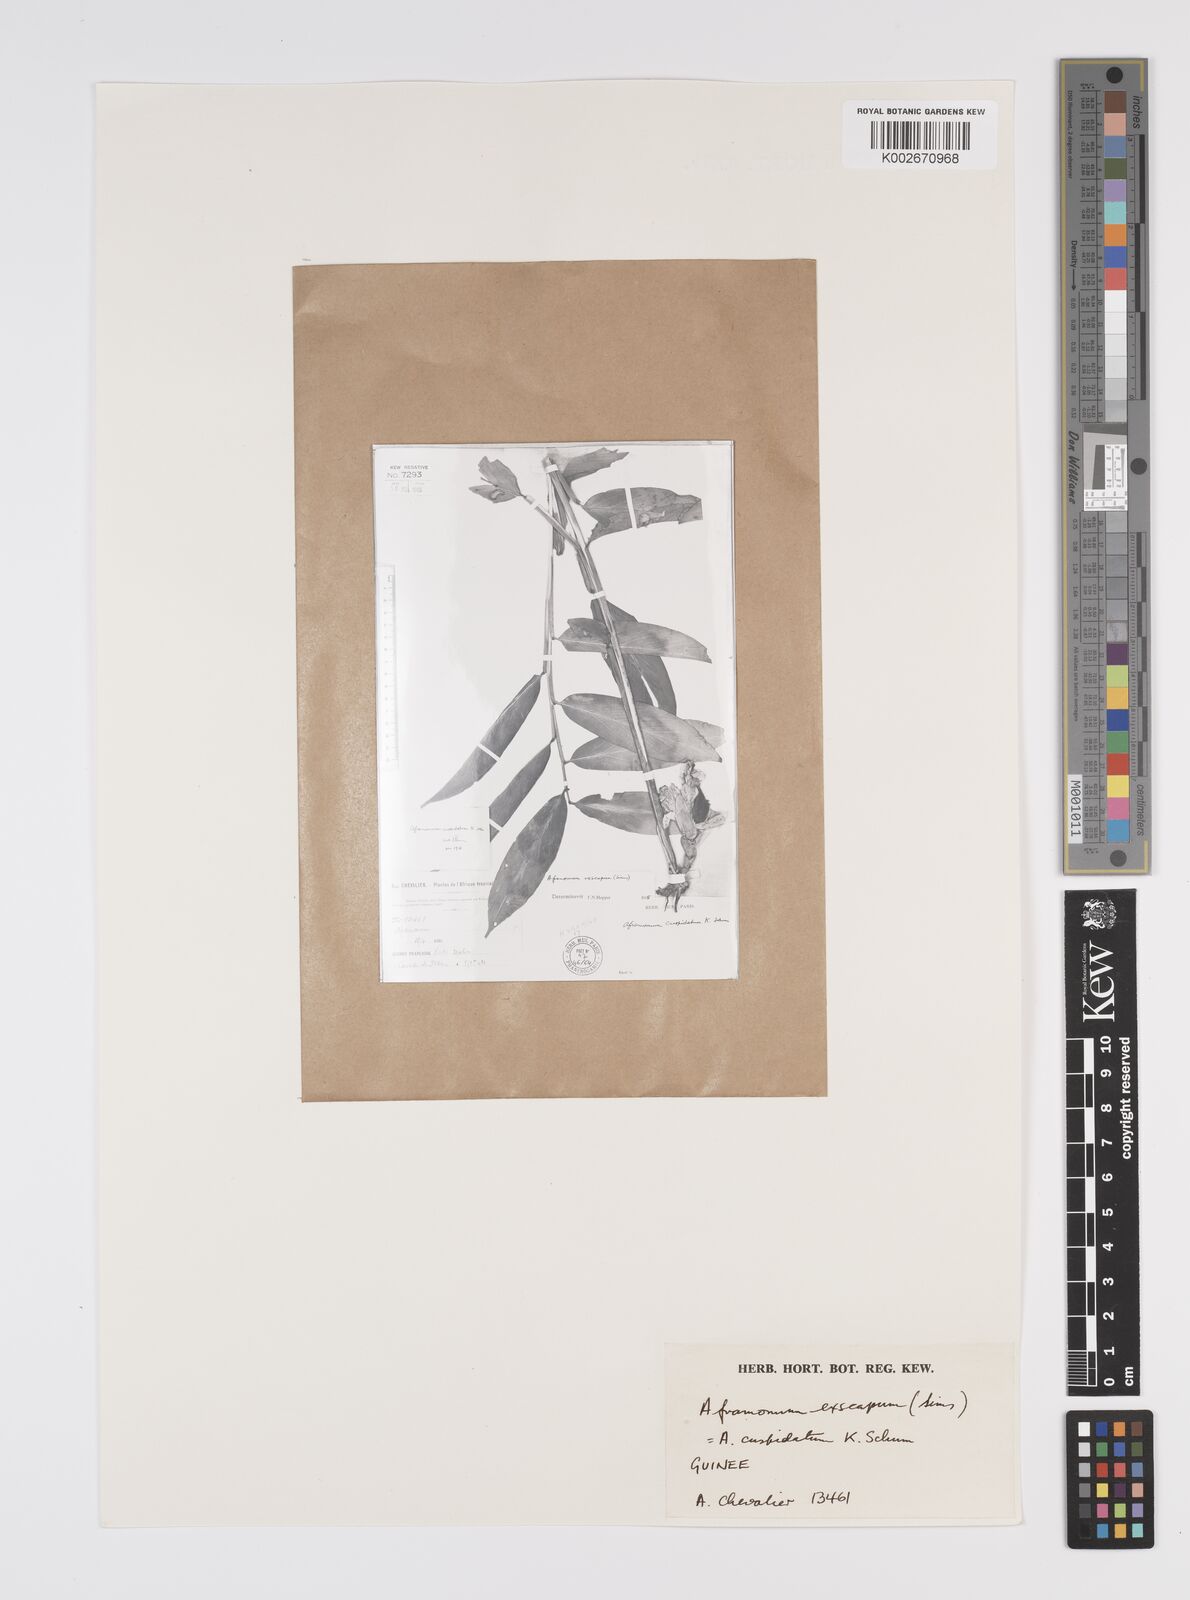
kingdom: Plantae
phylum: Tracheophyta
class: Liliopsida
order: Zingiberales
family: Zingiberaceae
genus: Aframomum
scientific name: Aframomum exscapum
